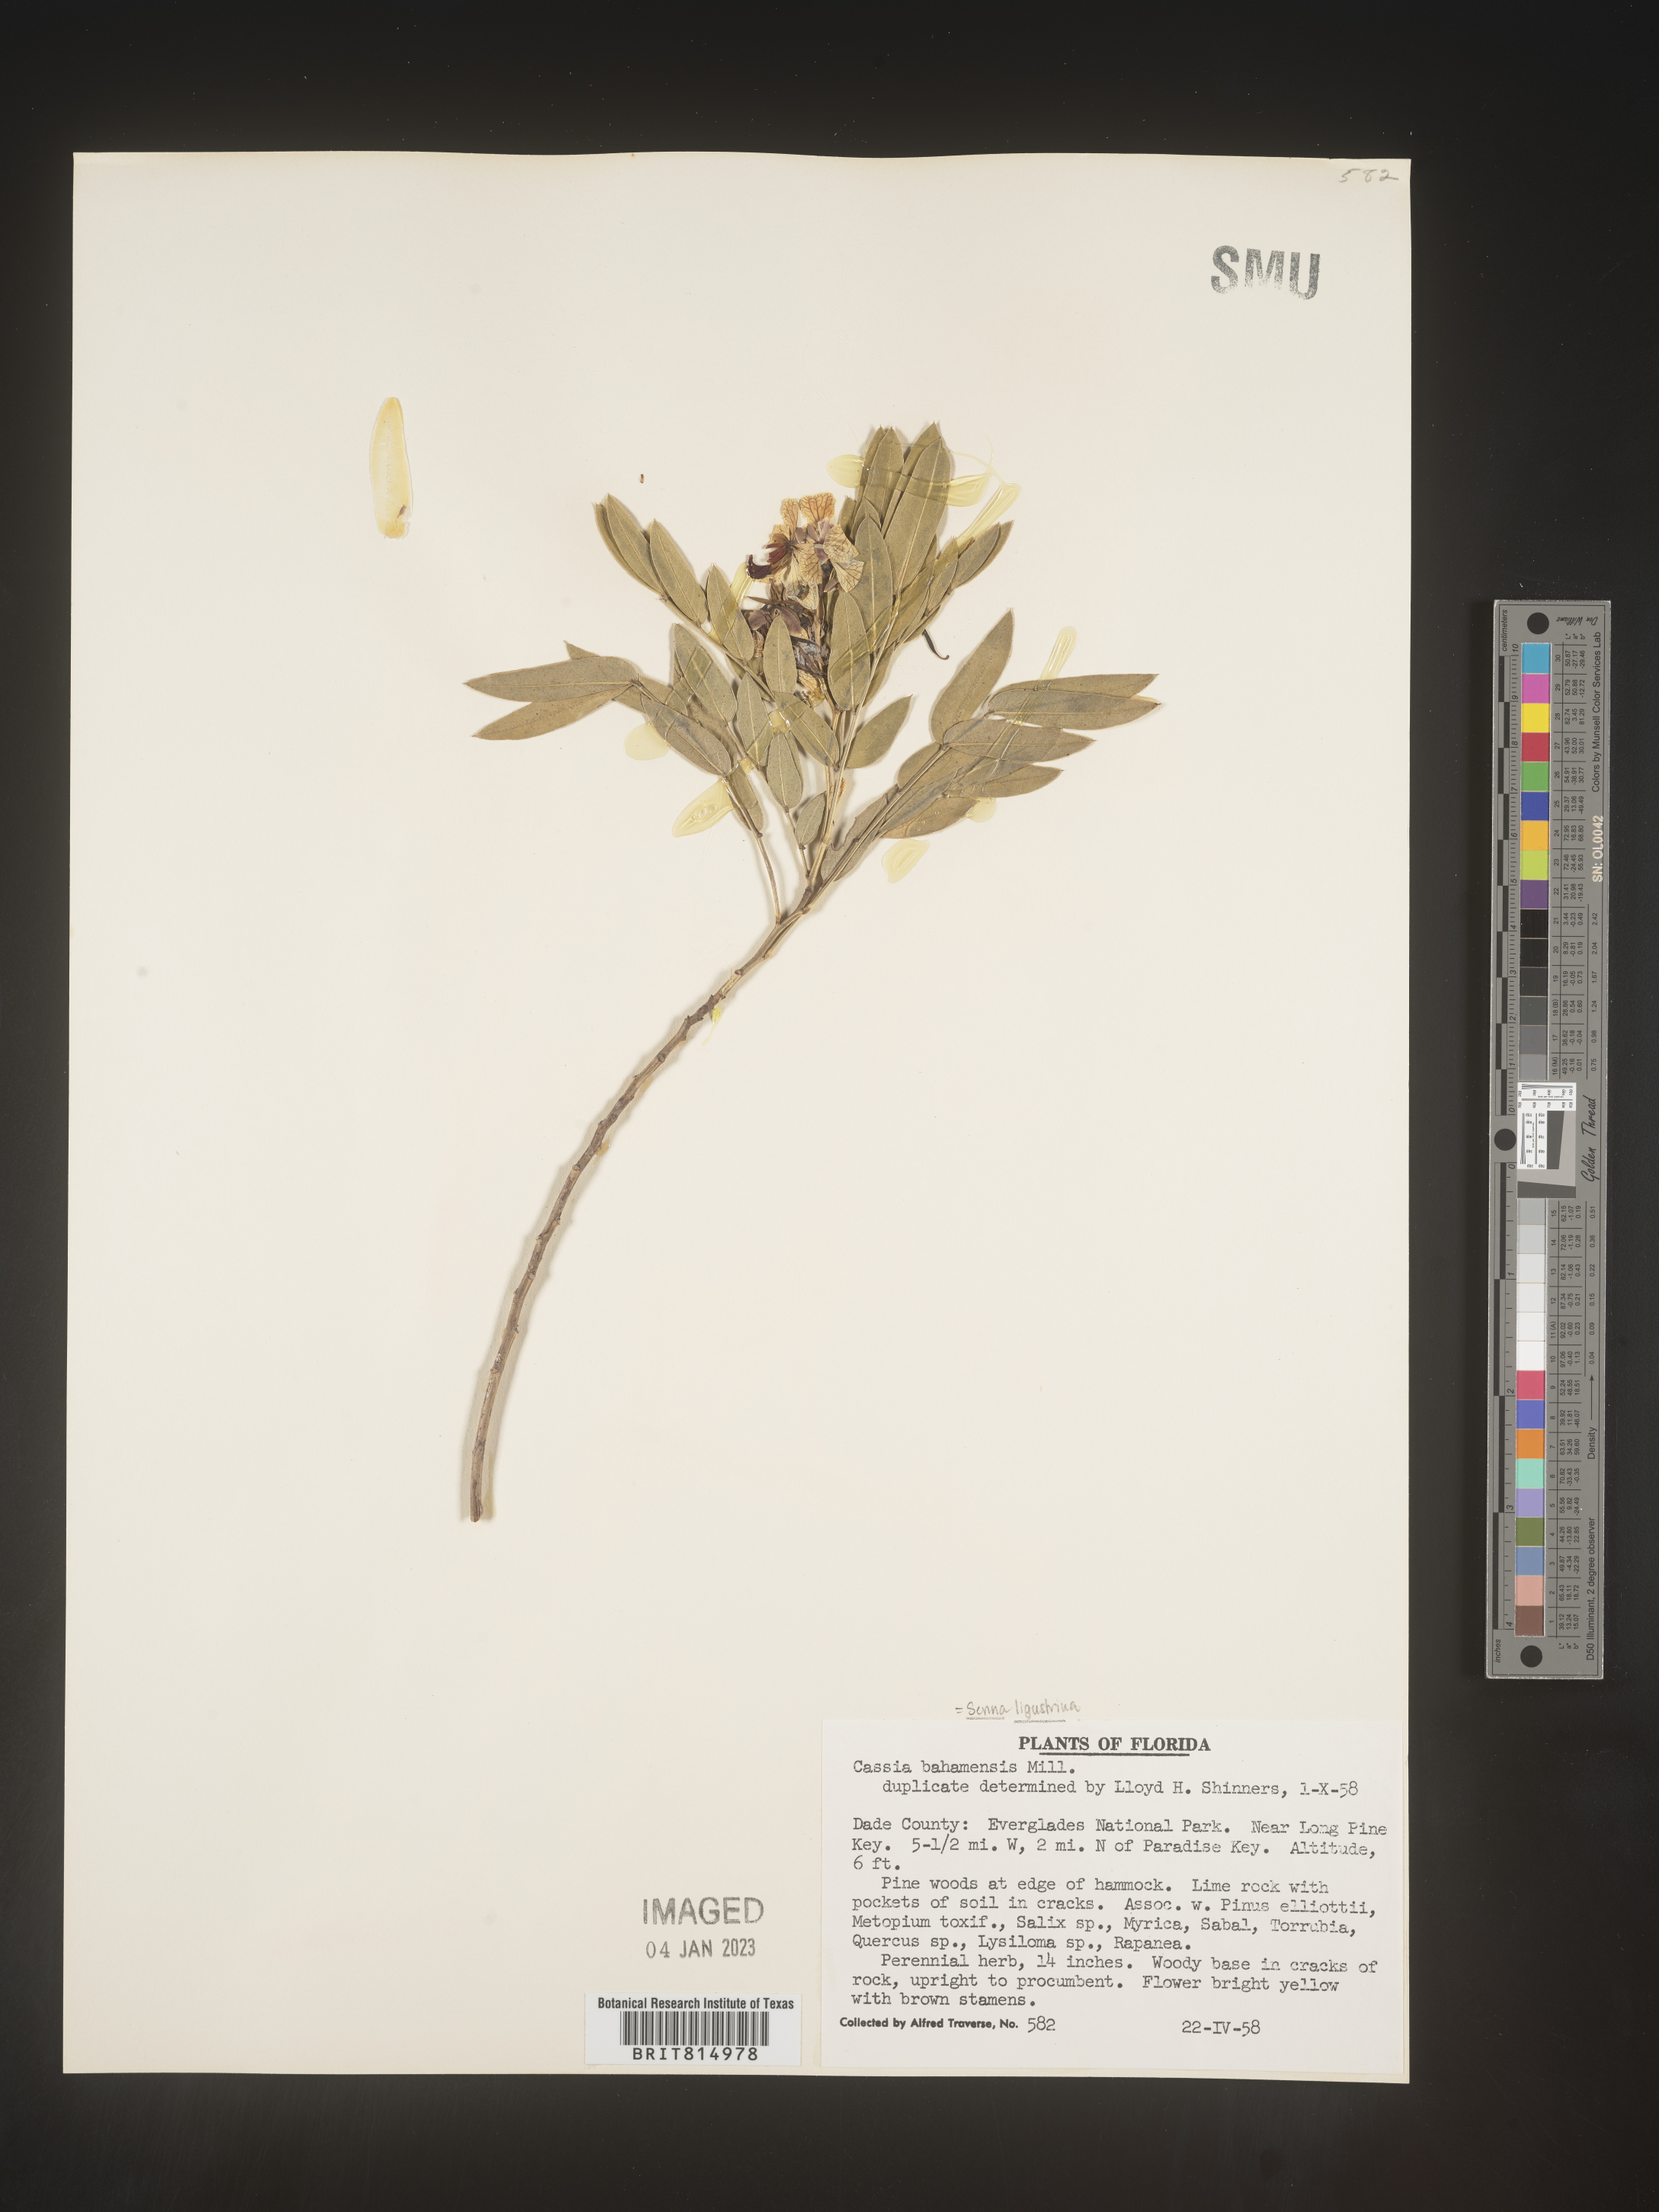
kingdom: Plantae
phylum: Tracheophyta
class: Magnoliopsida
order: Fabales
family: Fabaceae
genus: Cassia
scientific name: Cassia
